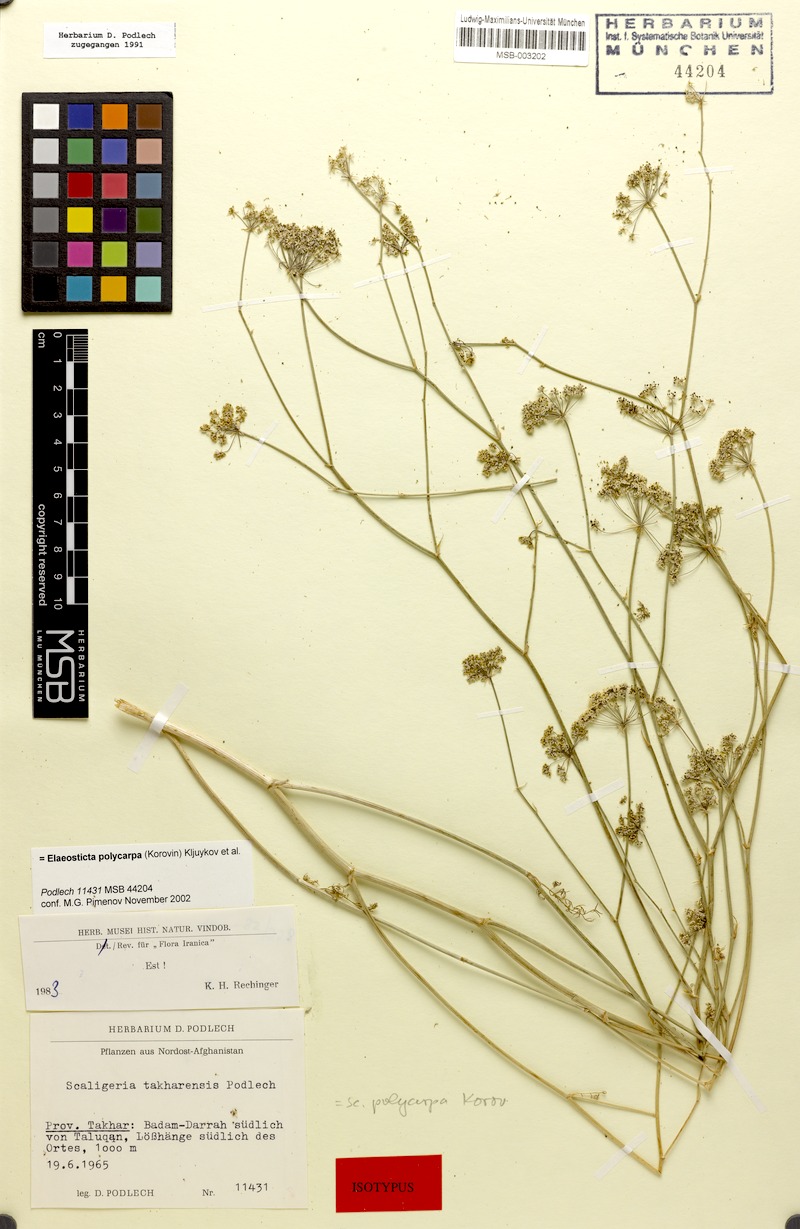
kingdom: Plantae
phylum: Tracheophyta
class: Magnoliopsida
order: Apiales
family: Apiaceae
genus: Scaligeria
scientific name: Scaligeria polycarpa
